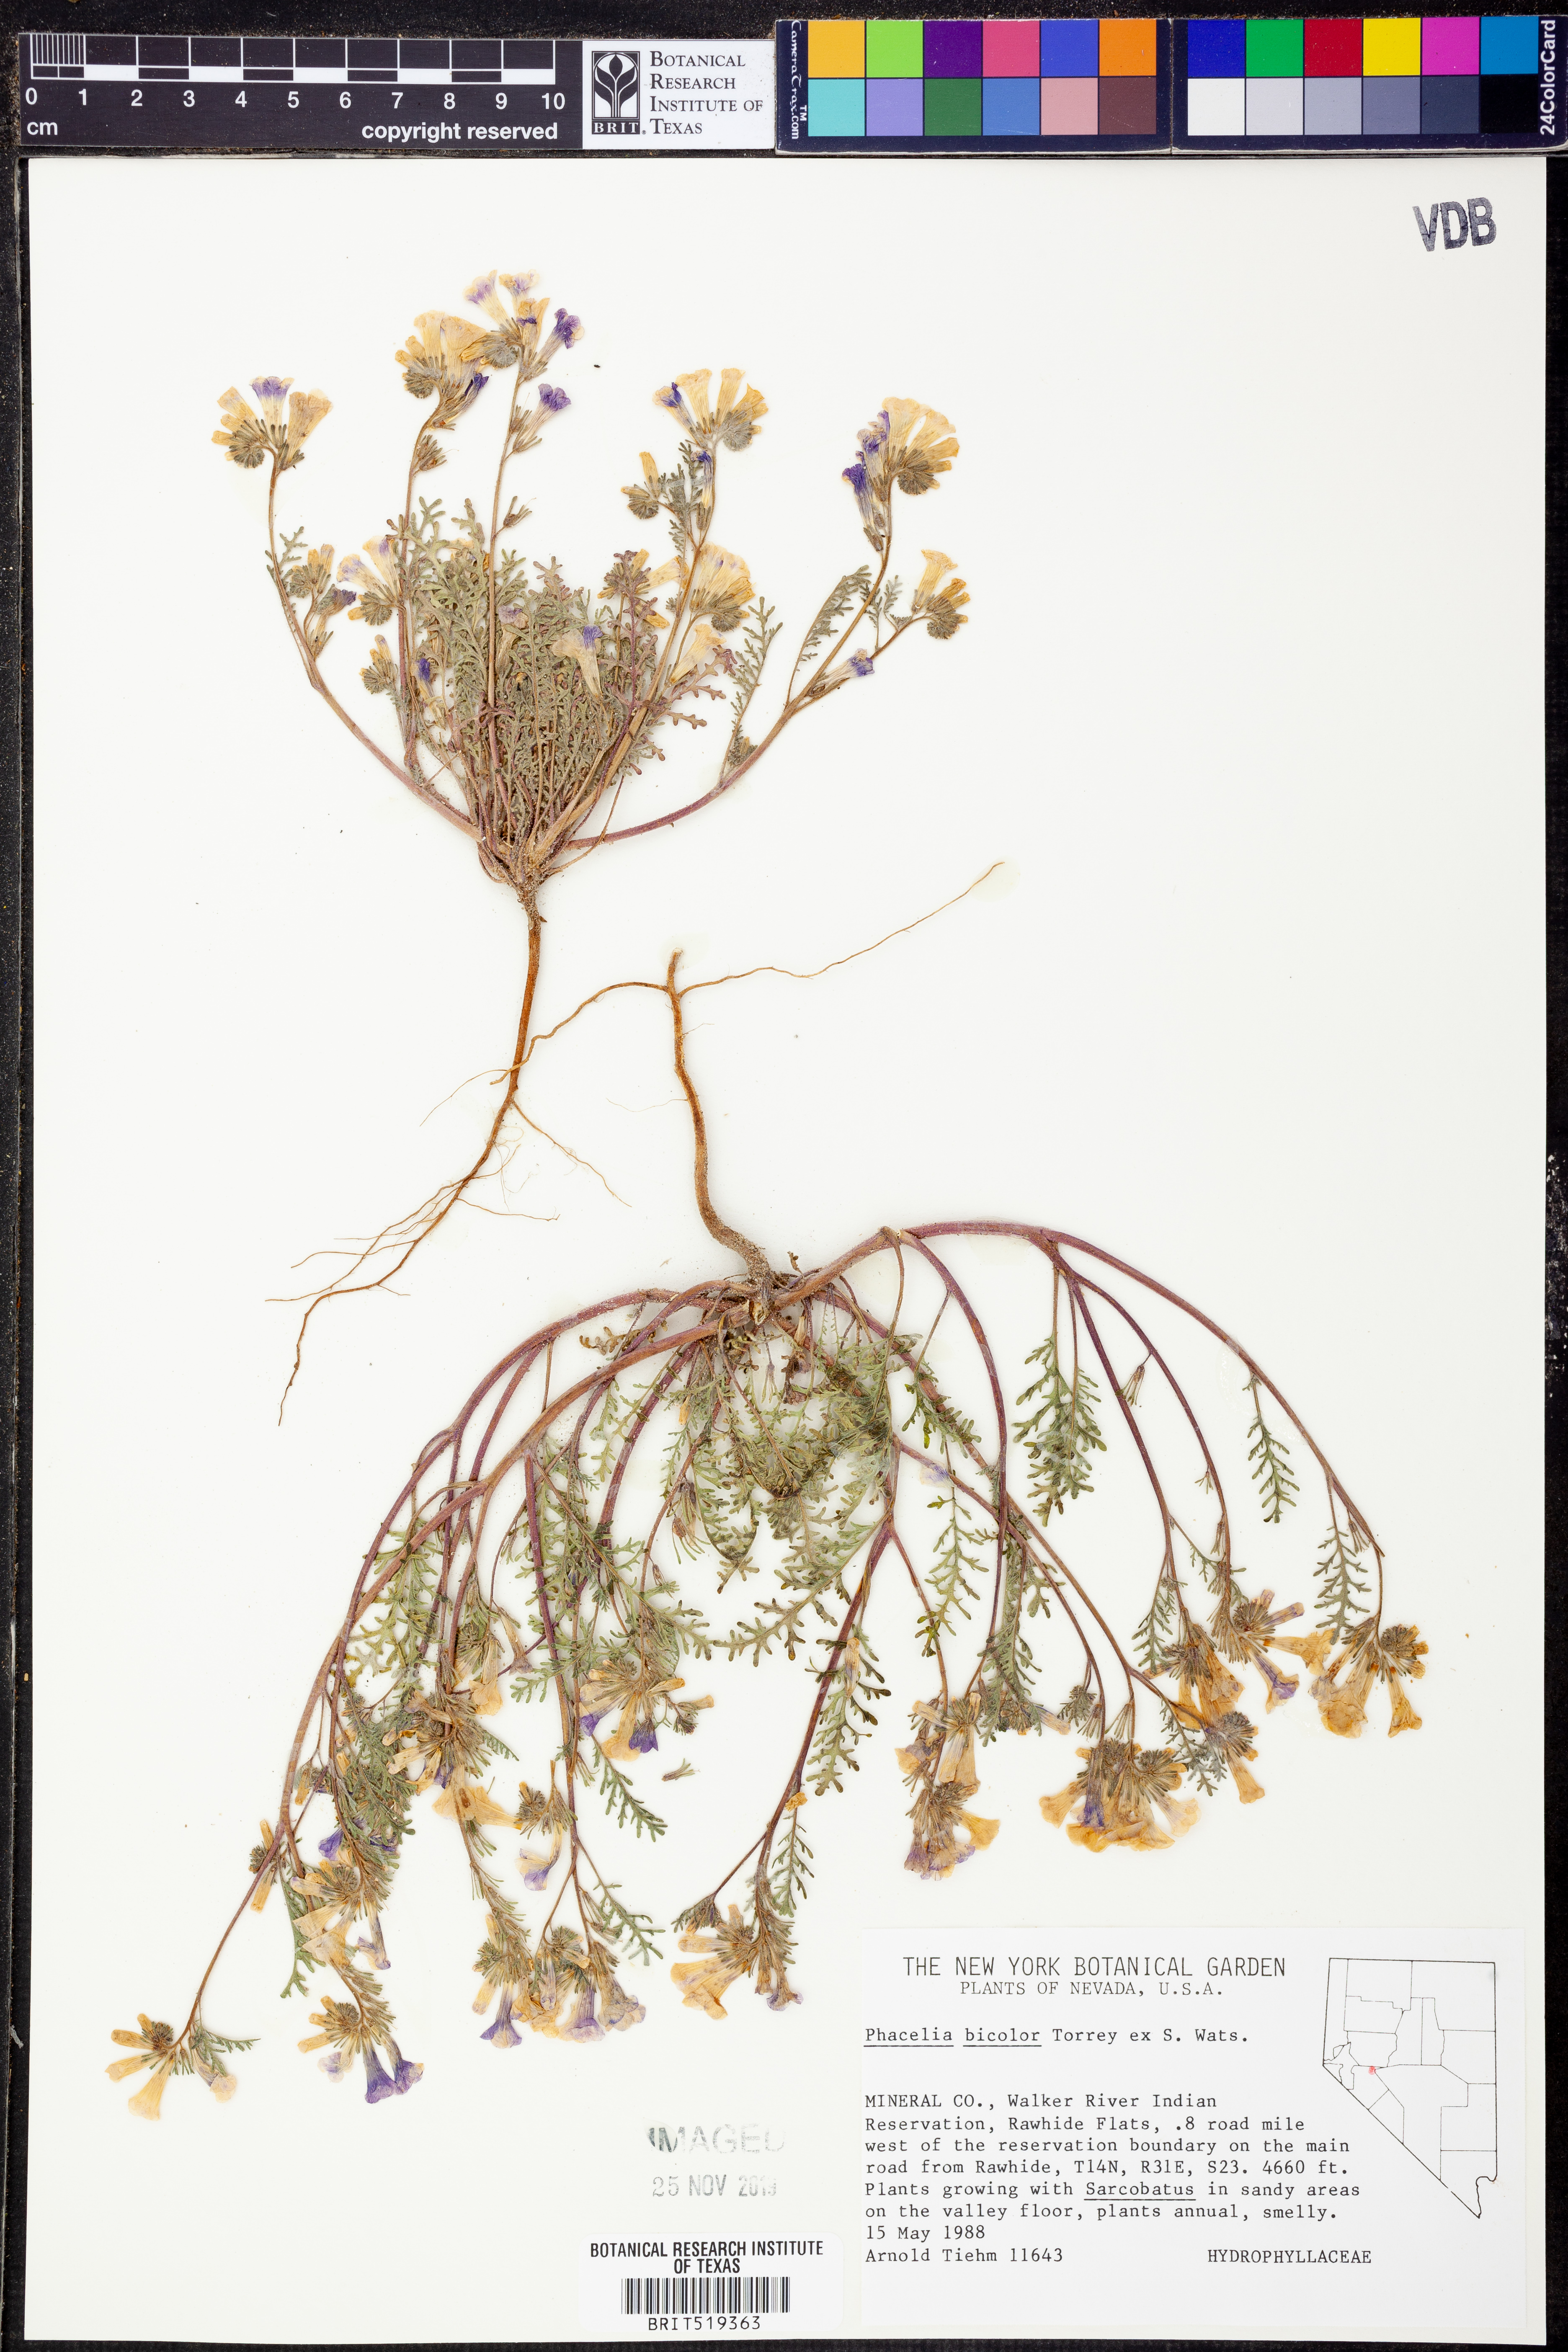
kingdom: Plantae
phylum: Tracheophyta
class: Magnoliopsida
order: Boraginales
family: Hydrophyllaceae
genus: Phacelia
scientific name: Phacelia bicolor
